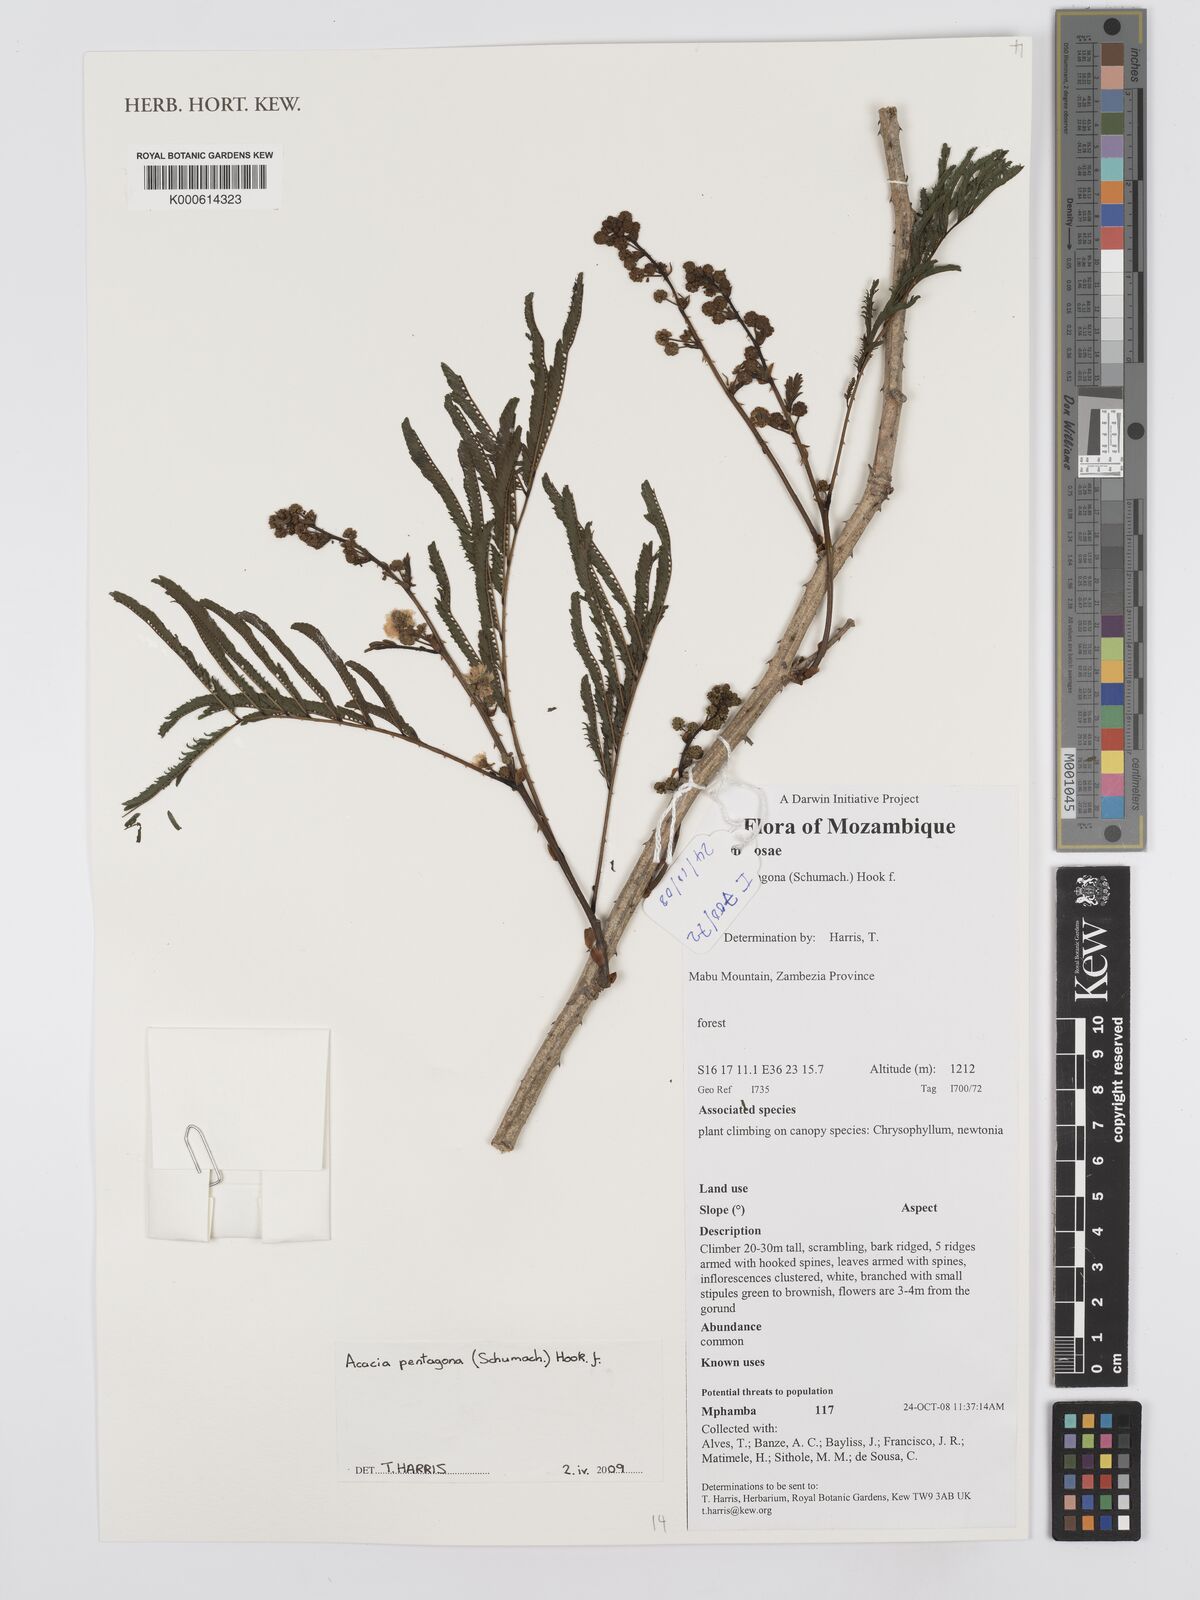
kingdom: Plantae
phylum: Tracheophyta
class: Magnoliopsida
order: Fabales
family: Fabaceae
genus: Senegalia
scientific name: Senegalia pentagona
